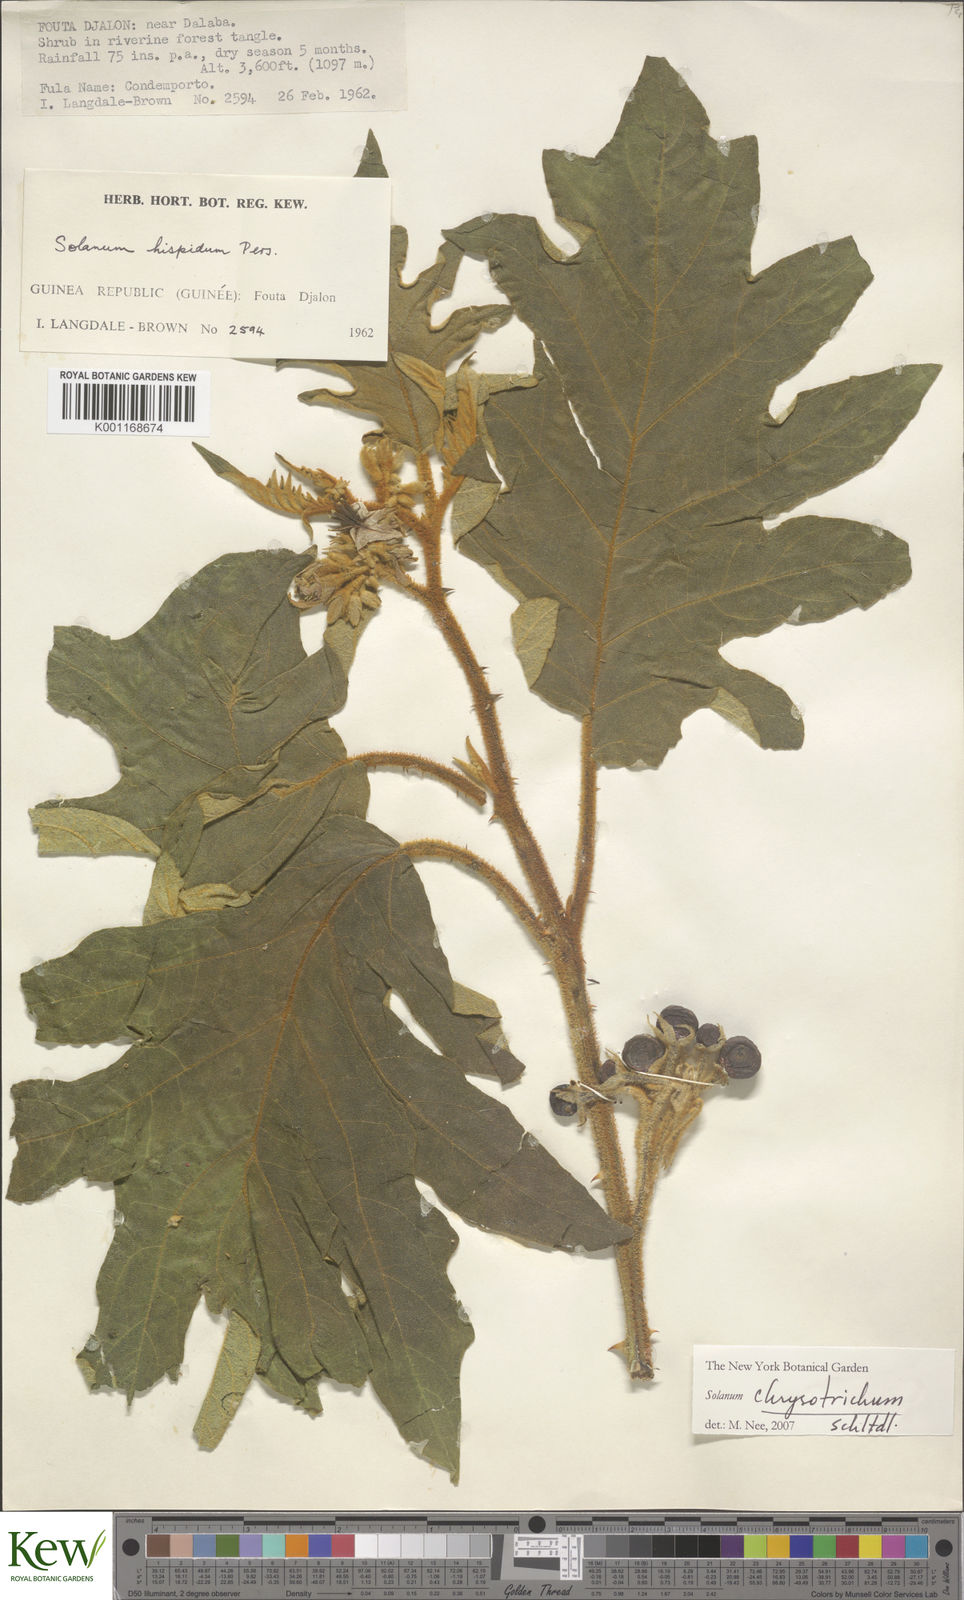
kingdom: Plantae
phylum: Tracheophyta
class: Magnoliopsida
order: Solanales
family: Solanaceae
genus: Solanum
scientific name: Solanum chrysotrichum
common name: Nightshade
